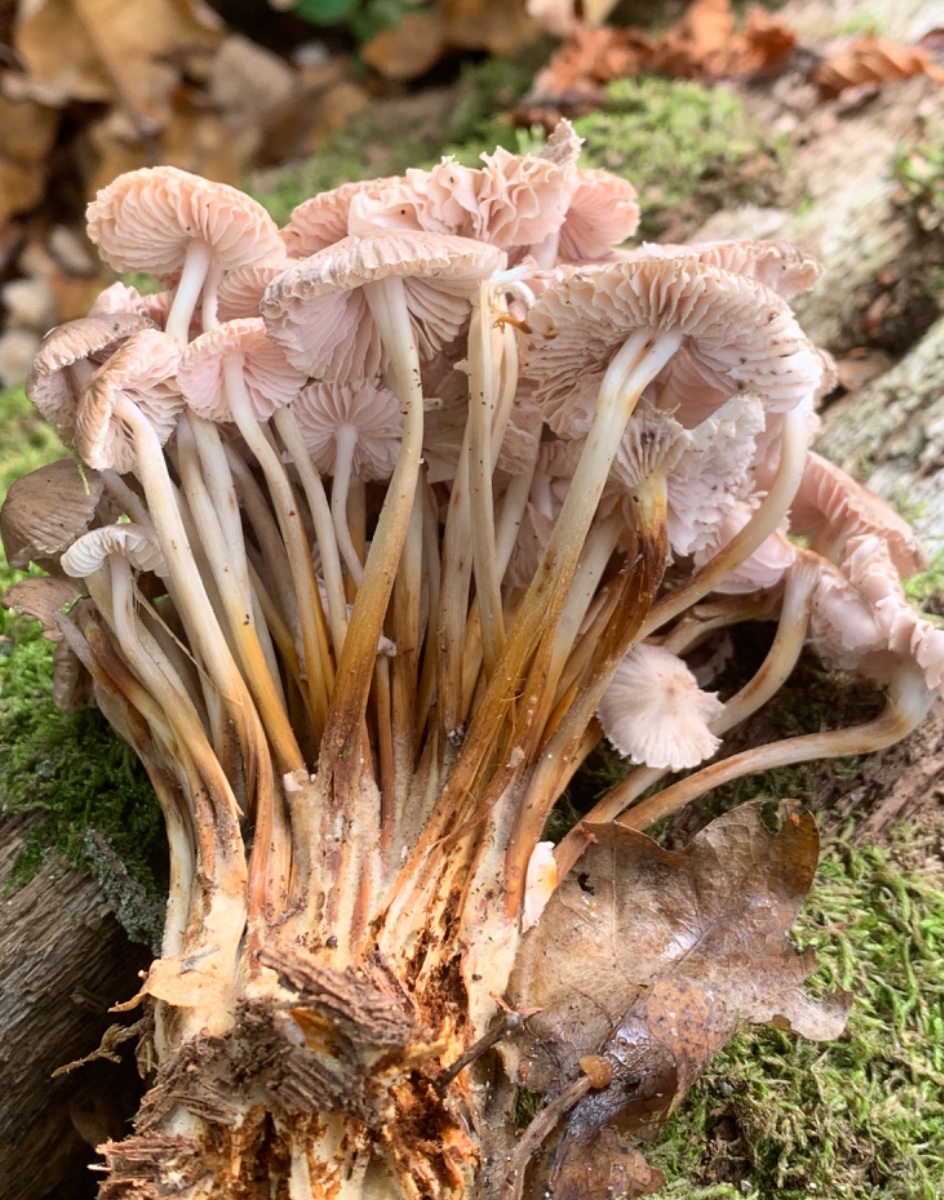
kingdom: Fungi
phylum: Basidiomycota
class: Agaricomycetes
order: Agaricales
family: Mycenaceae
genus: Mycena
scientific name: Mycena inclinata
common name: nikkende huesvamp
